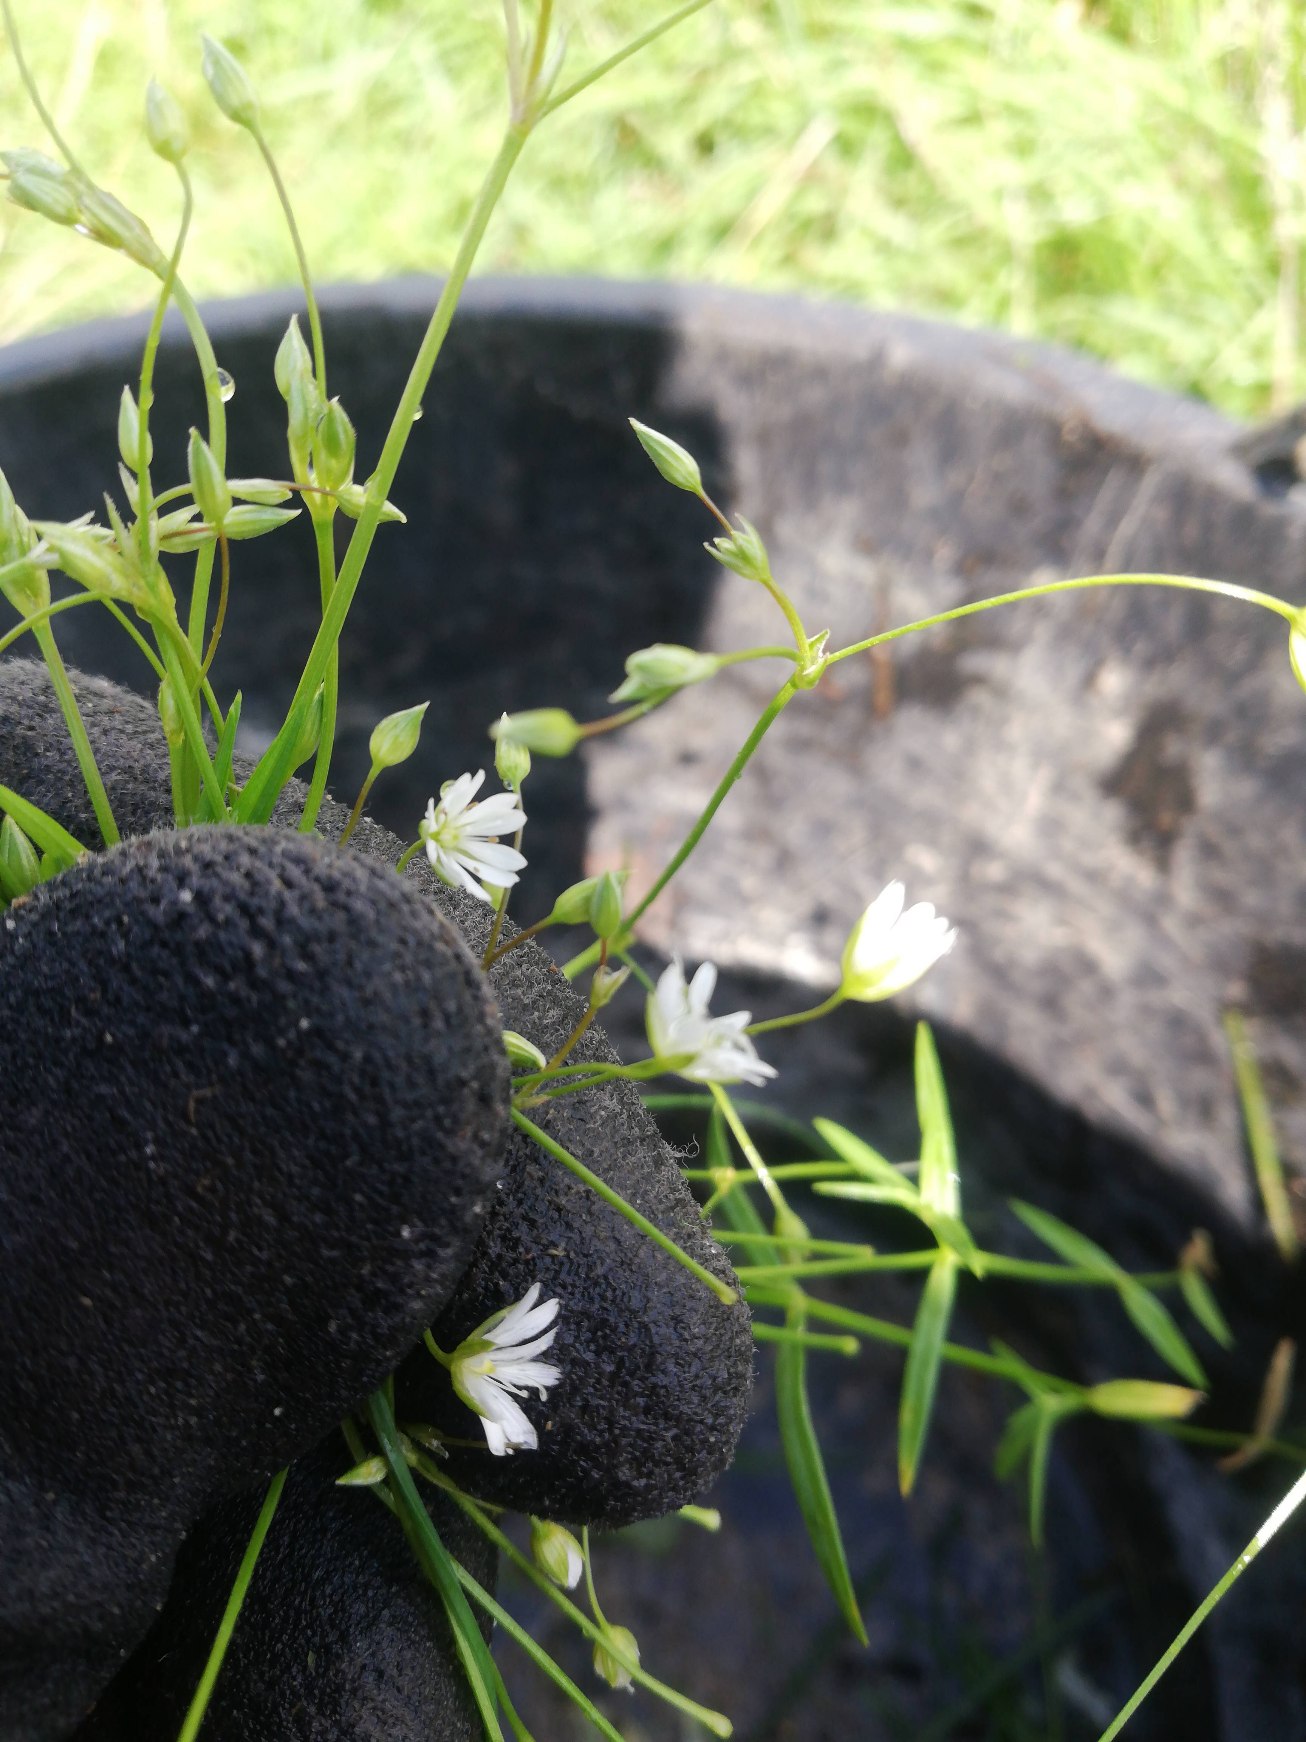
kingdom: Plantae
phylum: Tracheophyta
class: Magnoliopsida
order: Caryophyllales
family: Caryophyllaceae
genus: Stellaria
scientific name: Stellaria graminea
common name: Græsbladet fladstjerne
